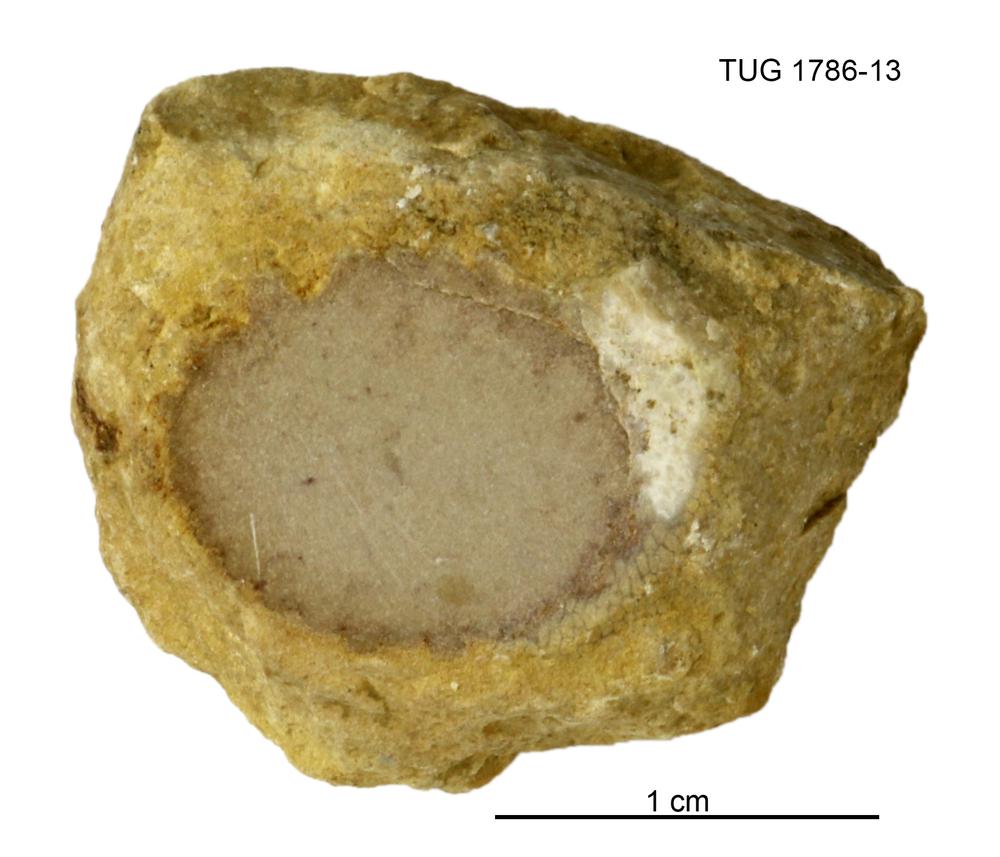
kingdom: Plantae
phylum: Chlorophyta
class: Ulvophyceae
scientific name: Ulvophyceae
